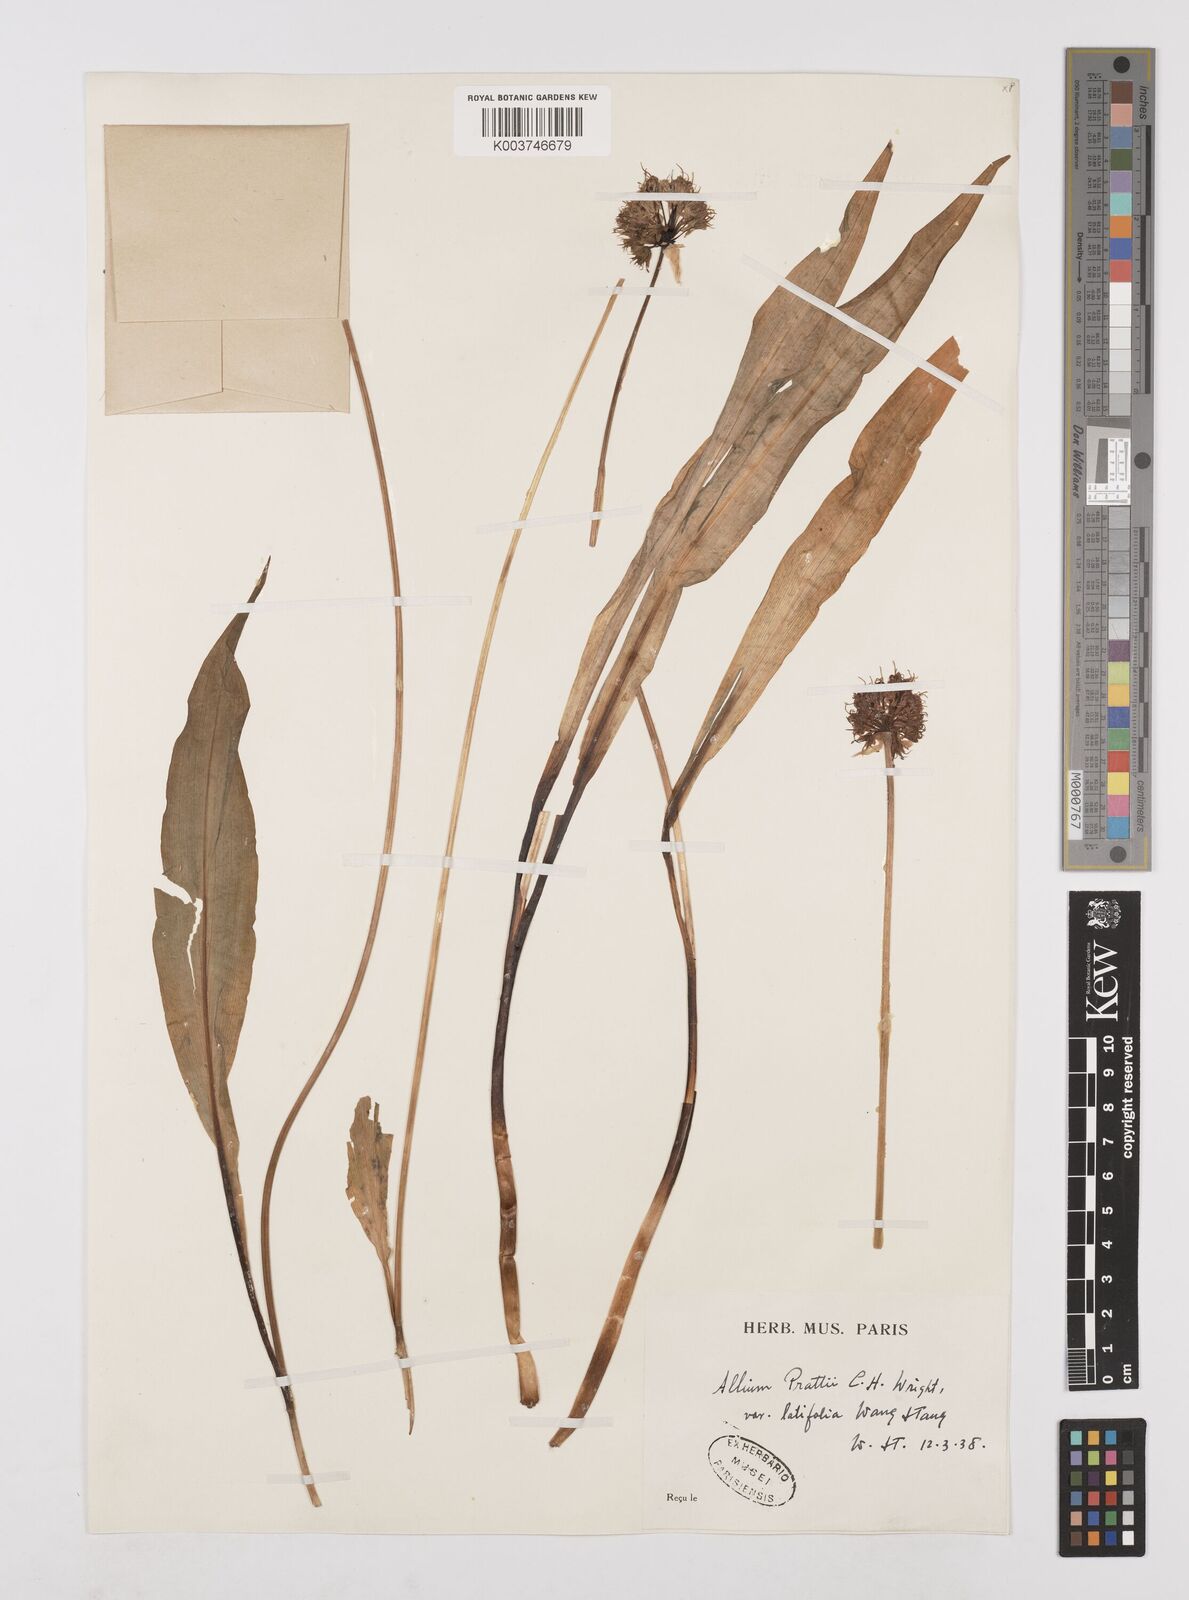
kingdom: Plantae
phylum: Tracheophyta
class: Liliopsida
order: Asparagales
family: Amaryllidaceae
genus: Allium
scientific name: Allium prattii
